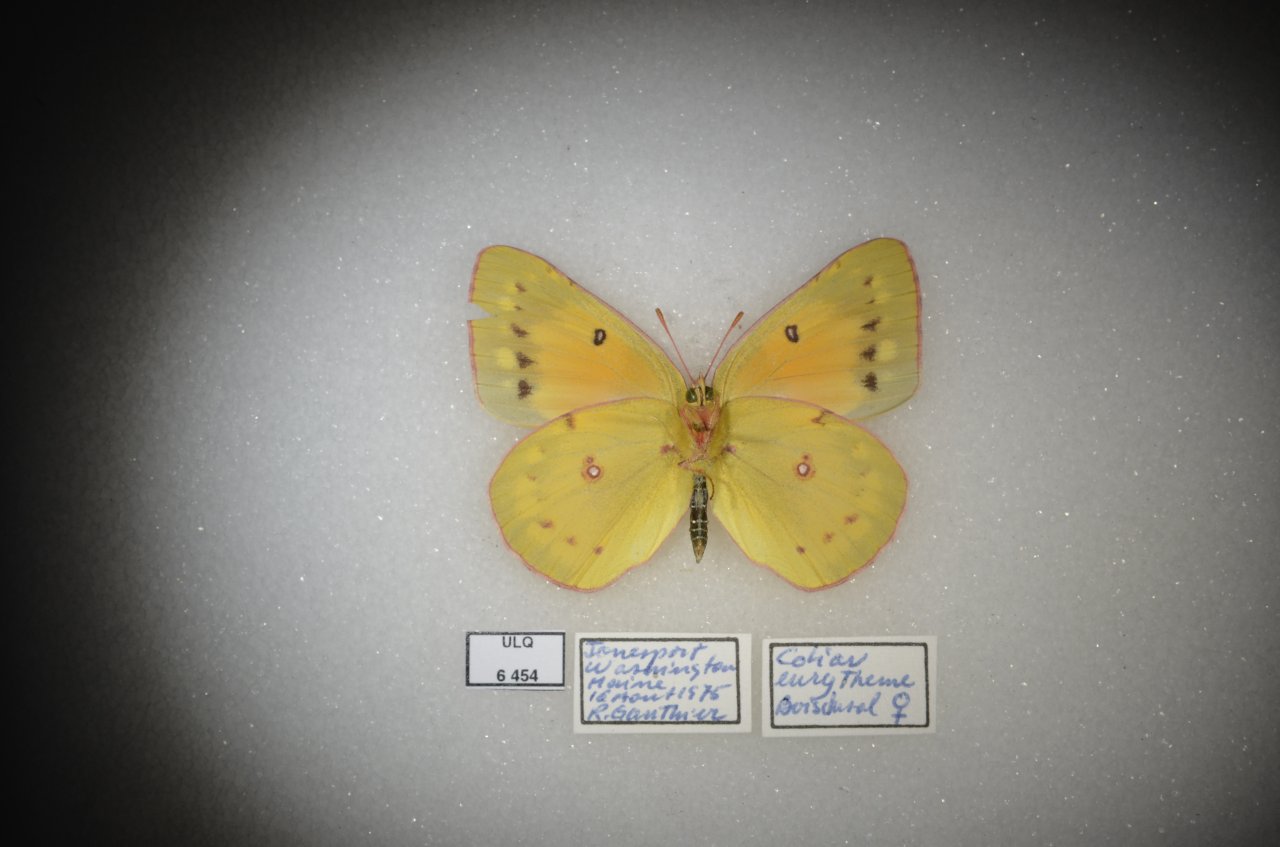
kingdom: Animalia
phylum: Arthropoda
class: Insecta
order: Lepidoptera
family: Pieridae
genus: Colias
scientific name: Colias eurytheme
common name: Orange Sulphur
